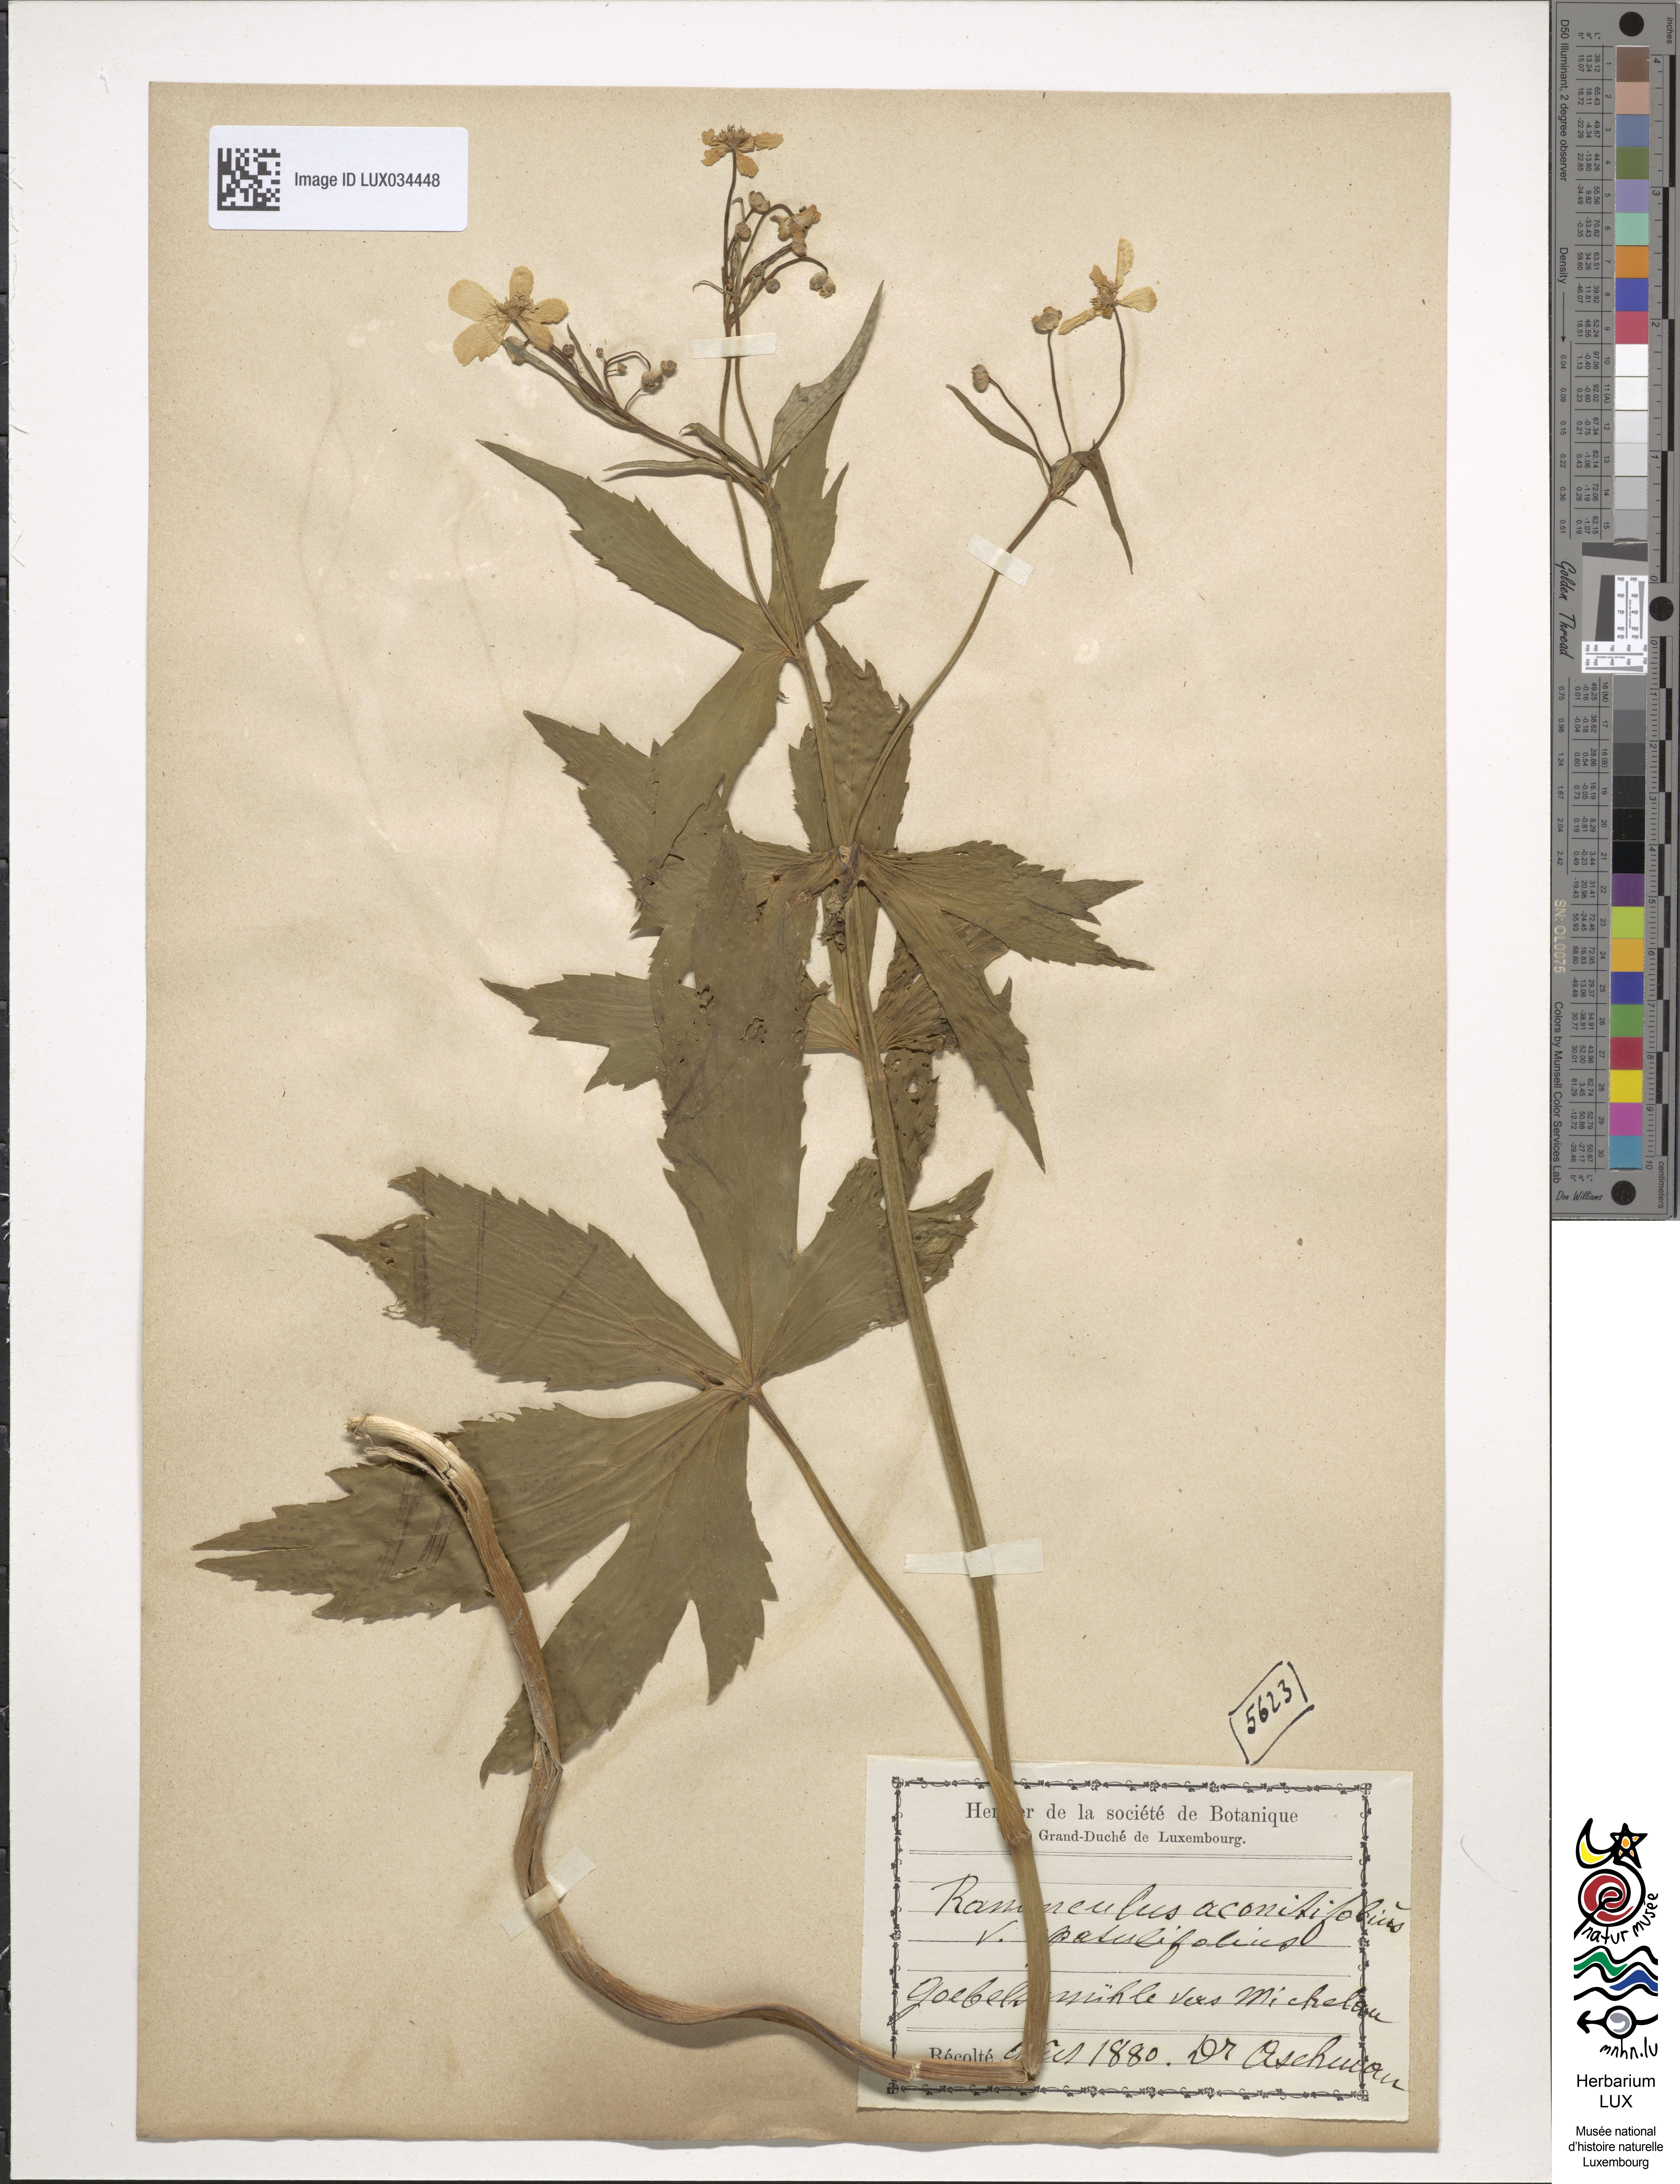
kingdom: Plantae
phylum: Tracheophyta
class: Magnoliopsida
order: Ranunculales
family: Ranunculaceae
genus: Ranunculus
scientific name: Ranunculus aconitifolius
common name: Aconite-leaved buttercup
